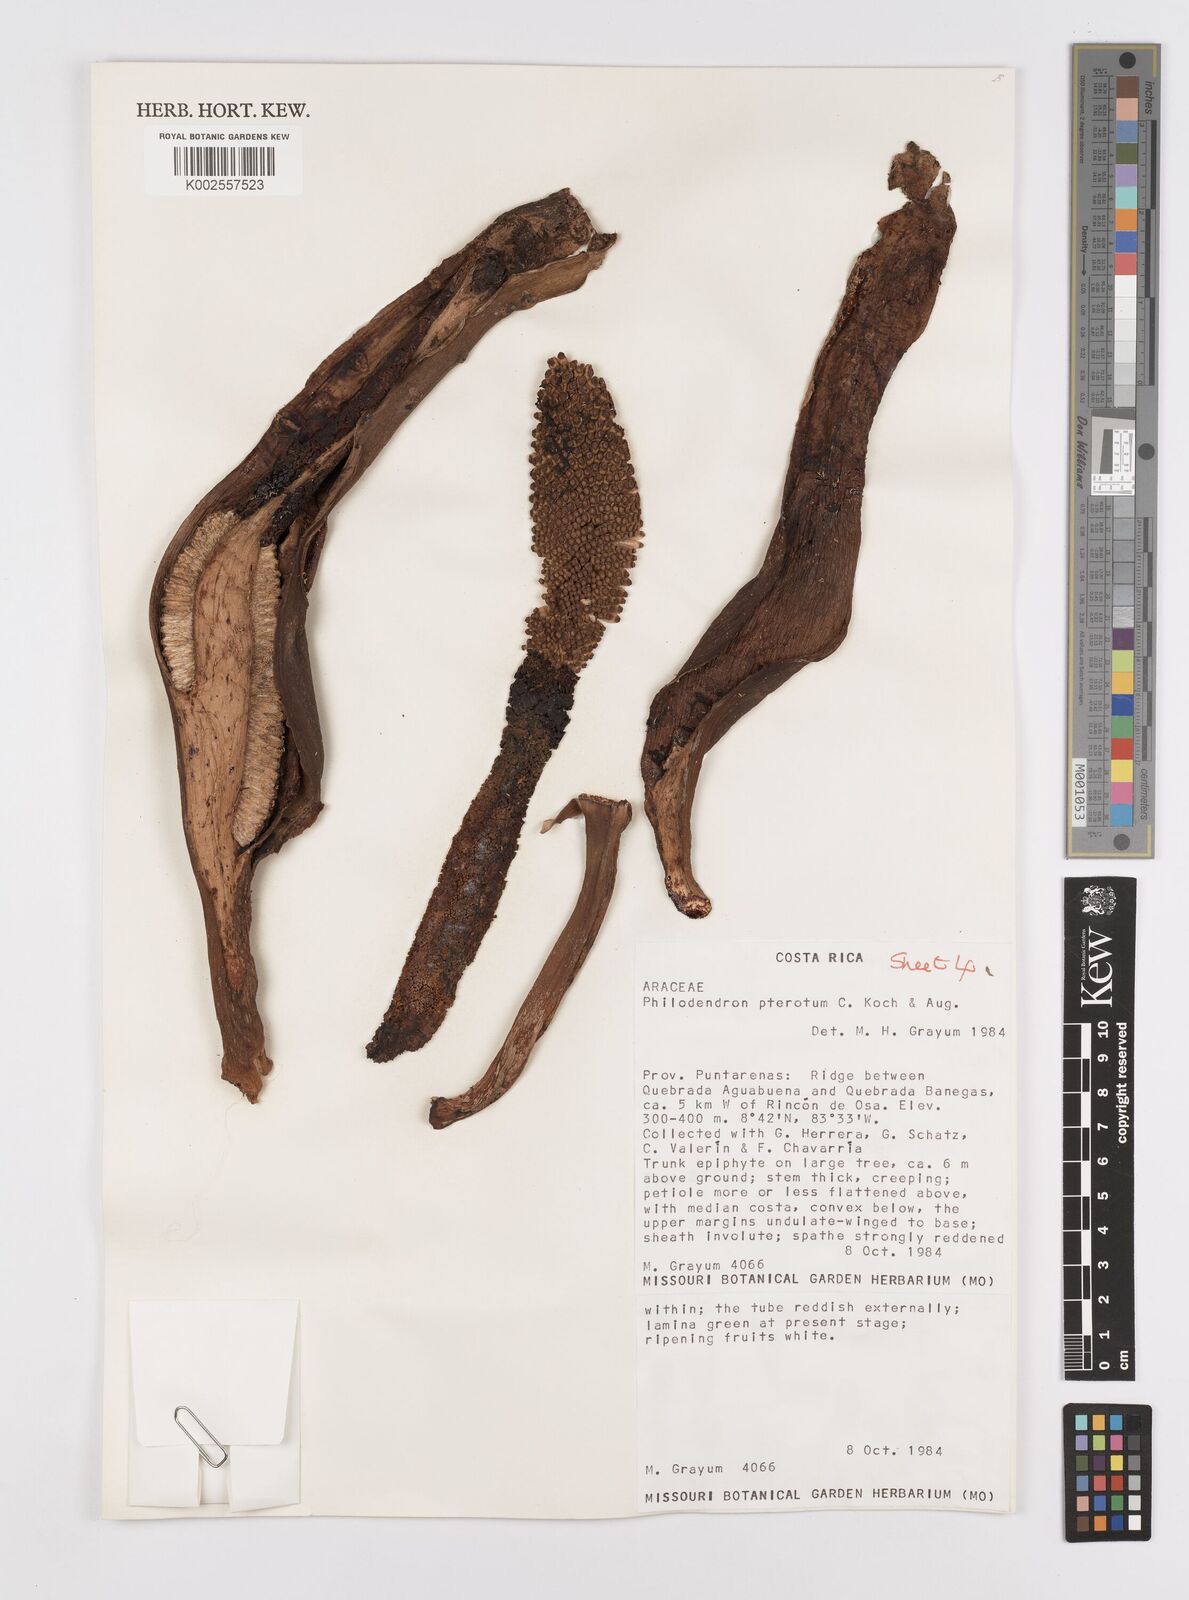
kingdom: Plantae
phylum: Tracheophyta
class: Liliopsida
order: Alismatales
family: Araceae
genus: Philodendron
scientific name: Philodendron pterotum
